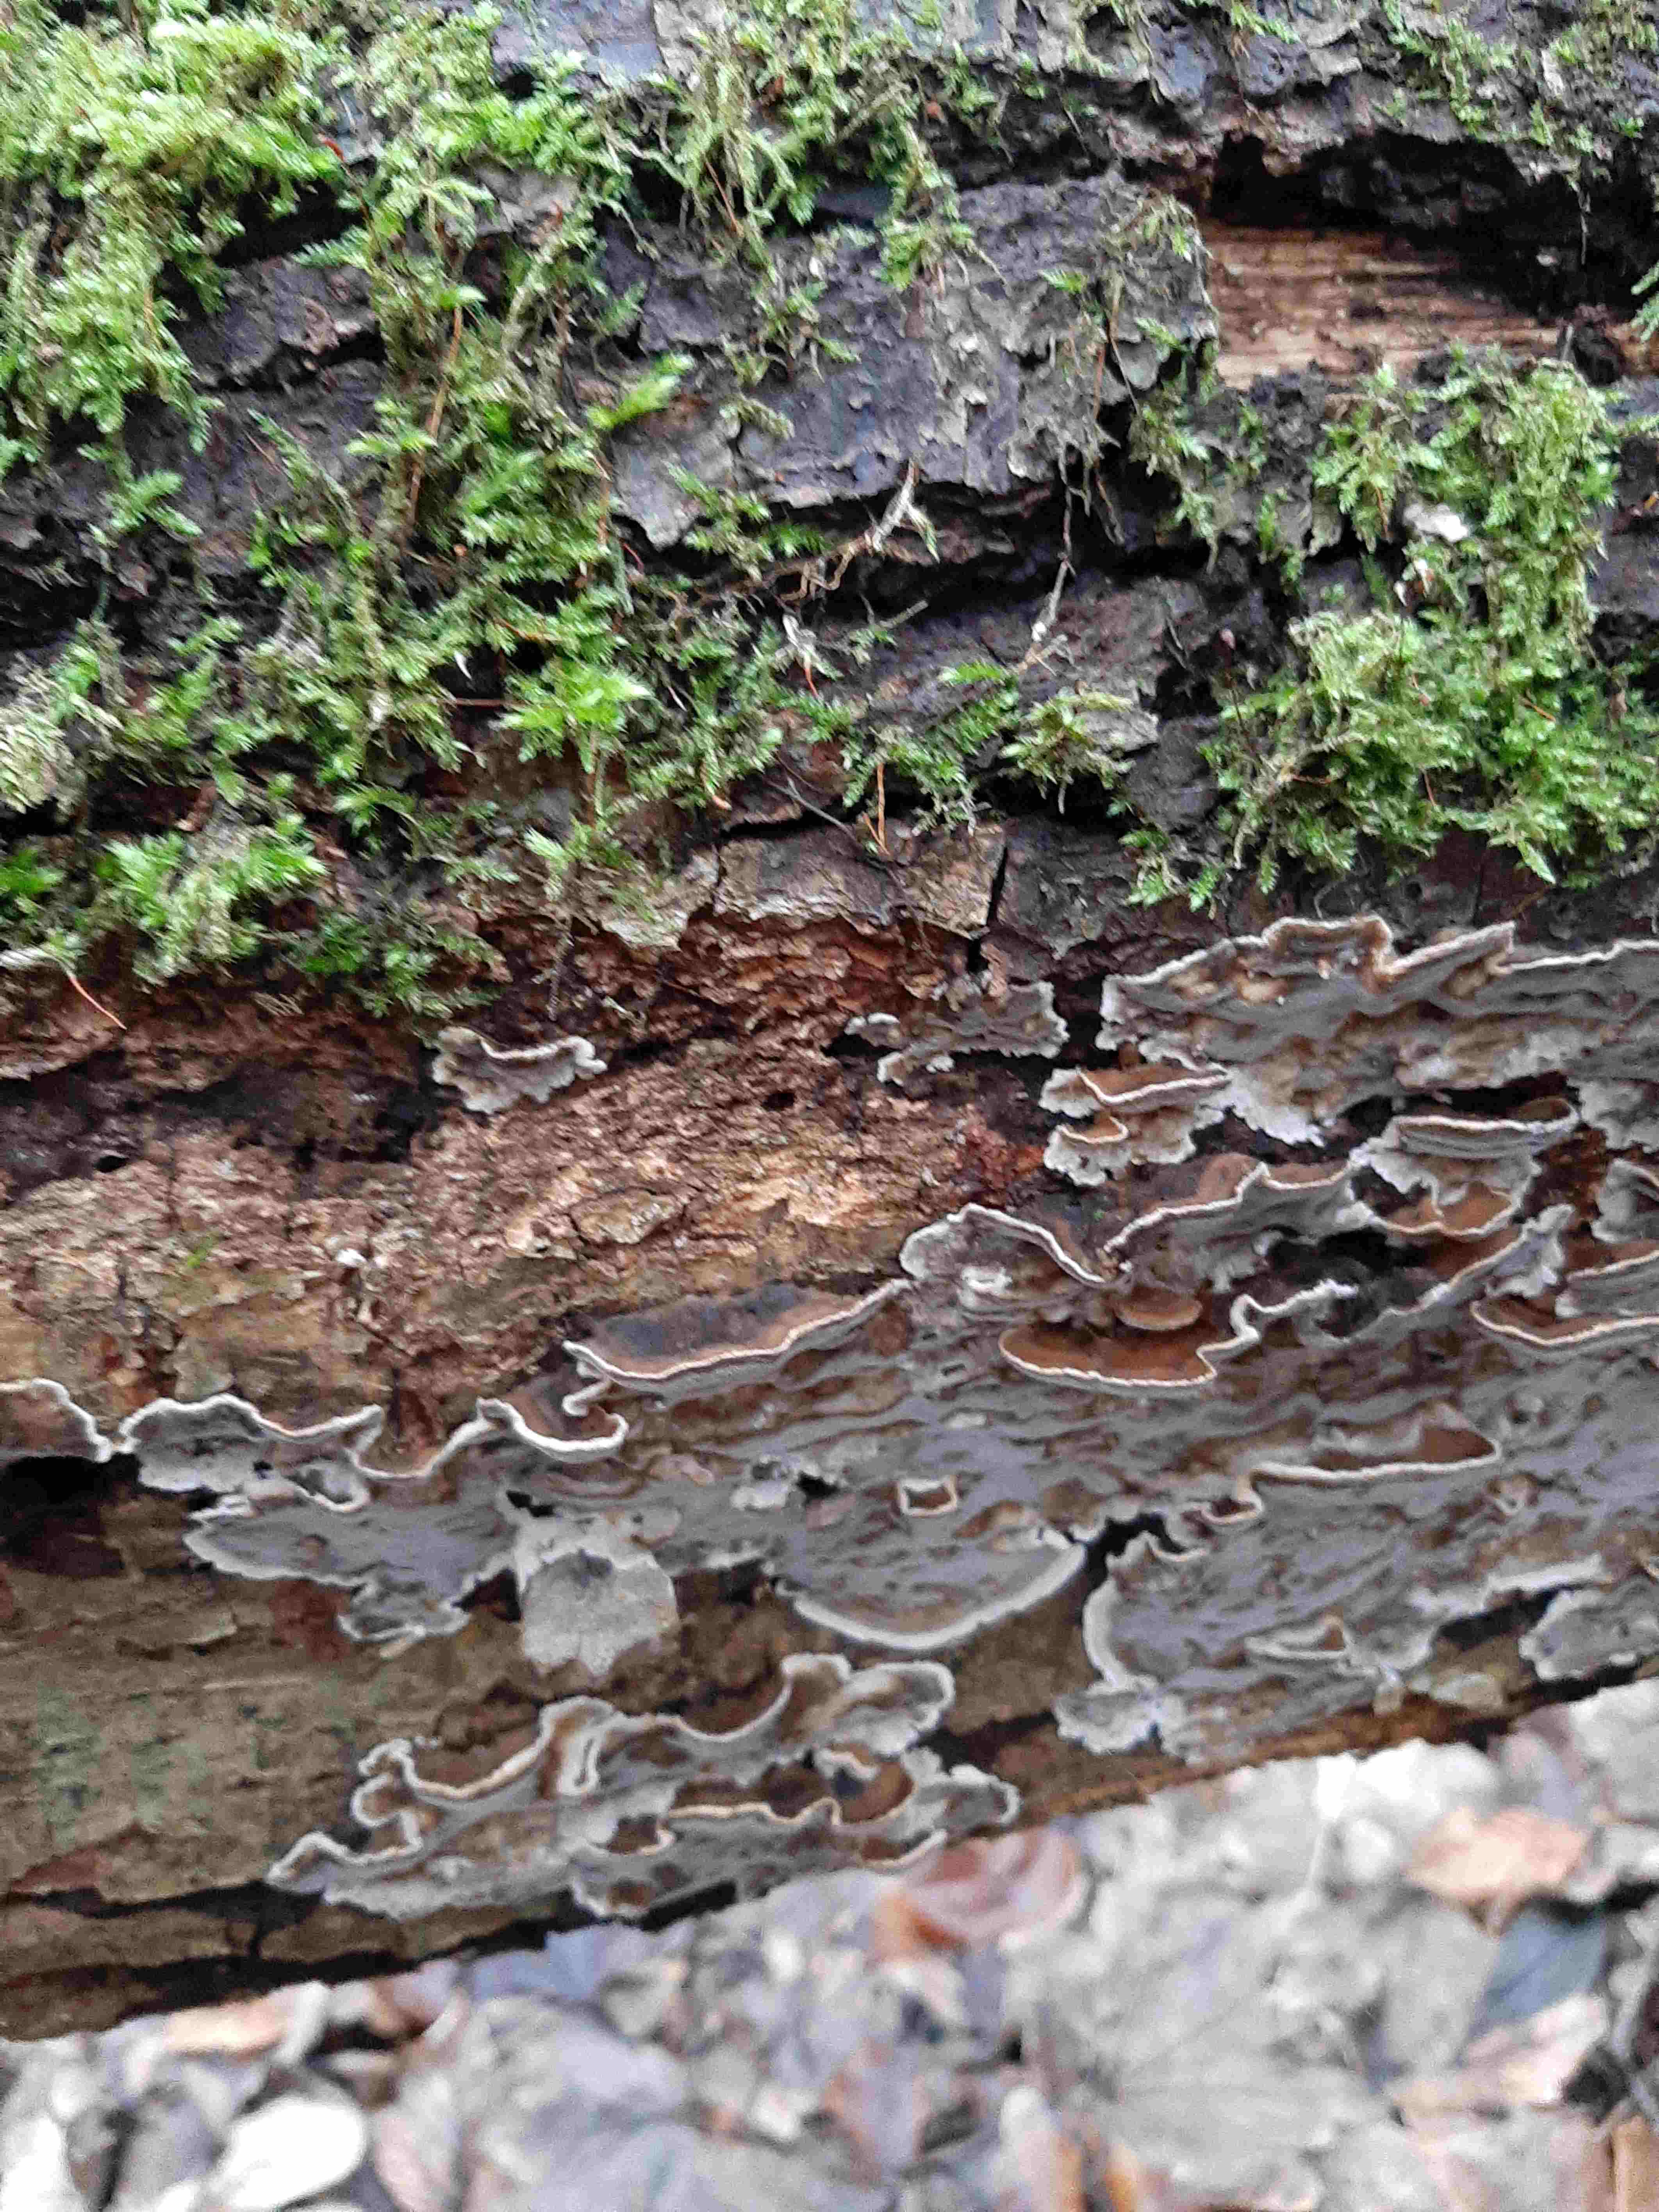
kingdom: Fungi
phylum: Basidiomycota
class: Agaricomycetes
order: Polyporales
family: Phanerochaetaceae
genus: Bjerkandera
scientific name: Bjerkandera adusta
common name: sveden sodporesvamp
